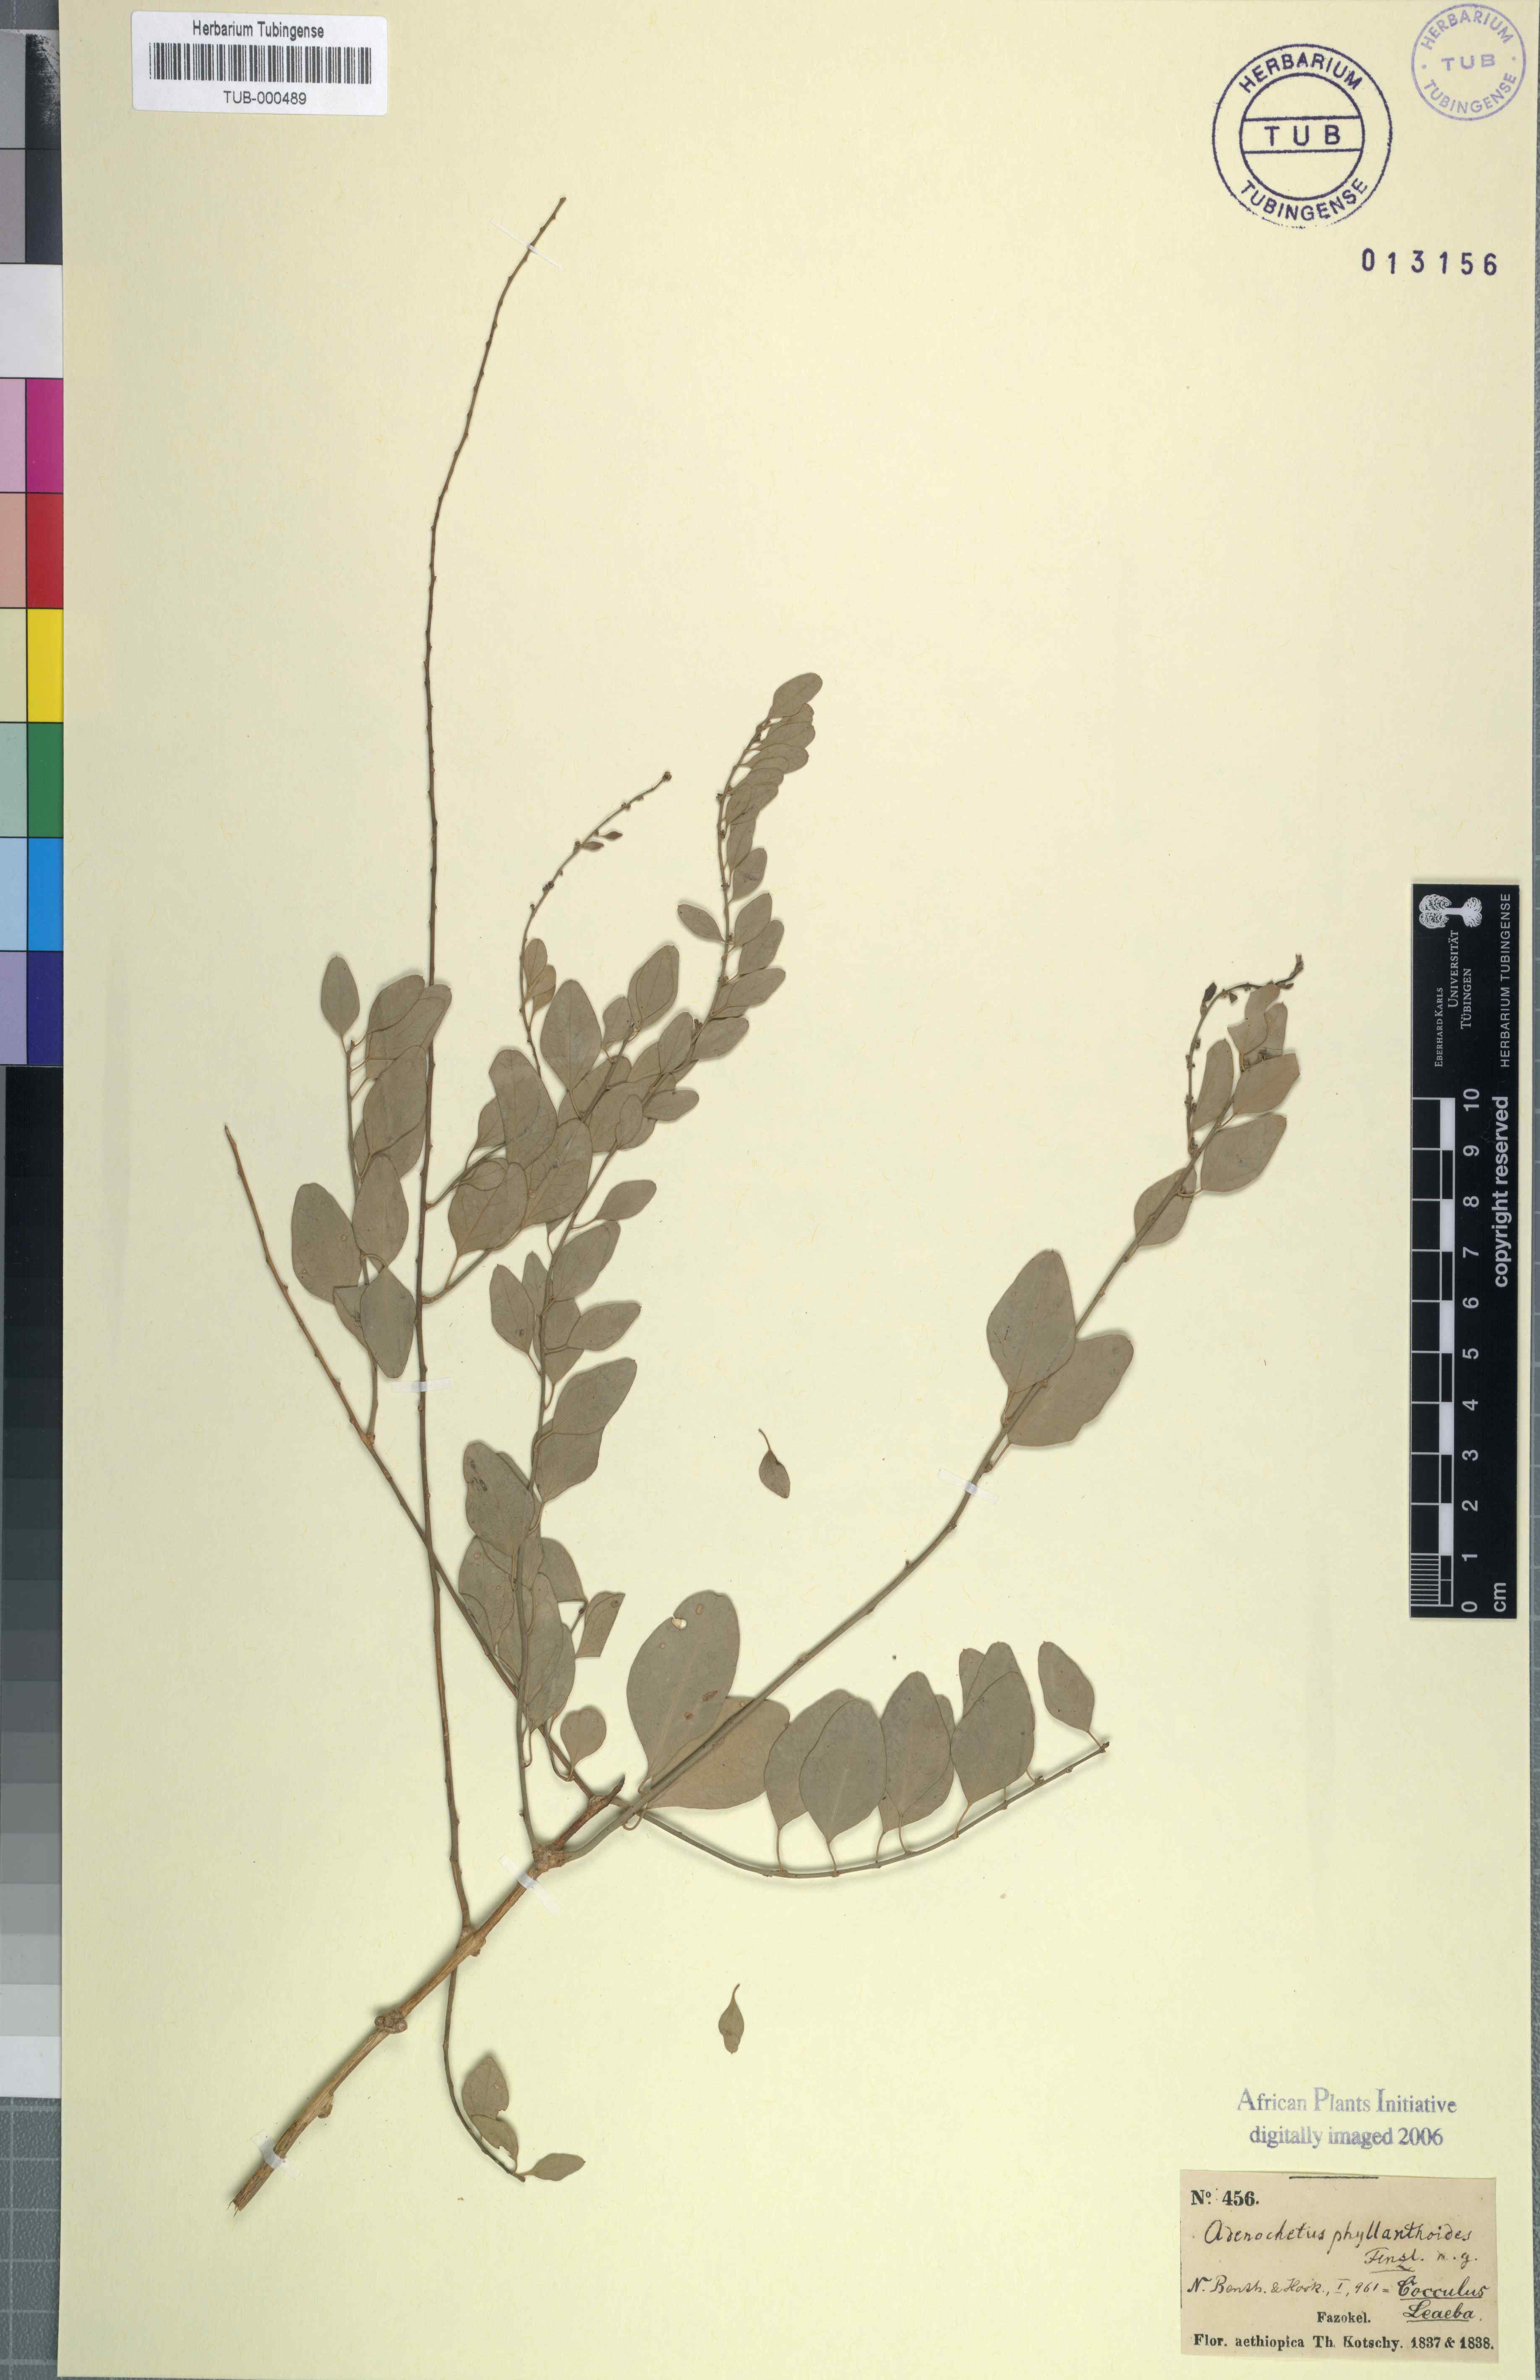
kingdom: Plantae
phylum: Tracheophyta
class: Magnoliopsida
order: Ranunculales
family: Menispermaceae
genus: Cocculus
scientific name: Cocculus pendulus
